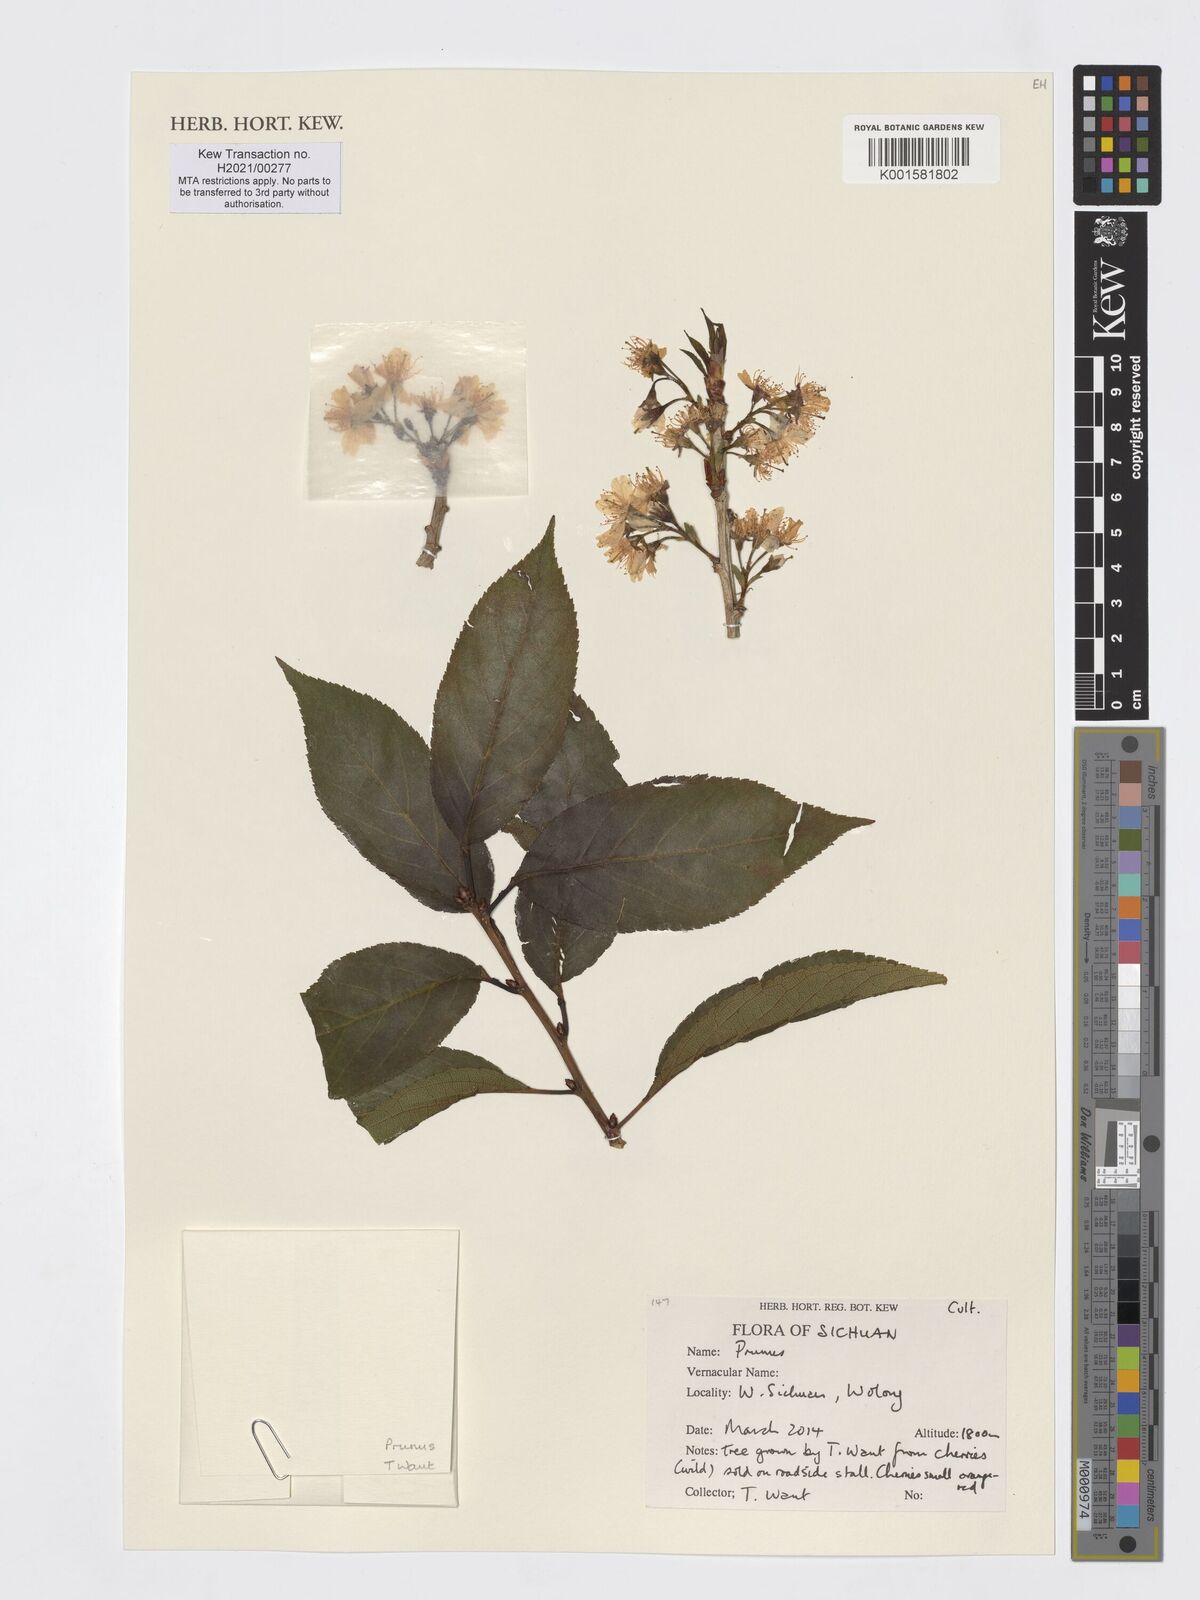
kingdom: Plantae
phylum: Tracheophyta
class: Magnoliopsida
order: Rosales
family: Rosaceae
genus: Prunus
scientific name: Prunus
